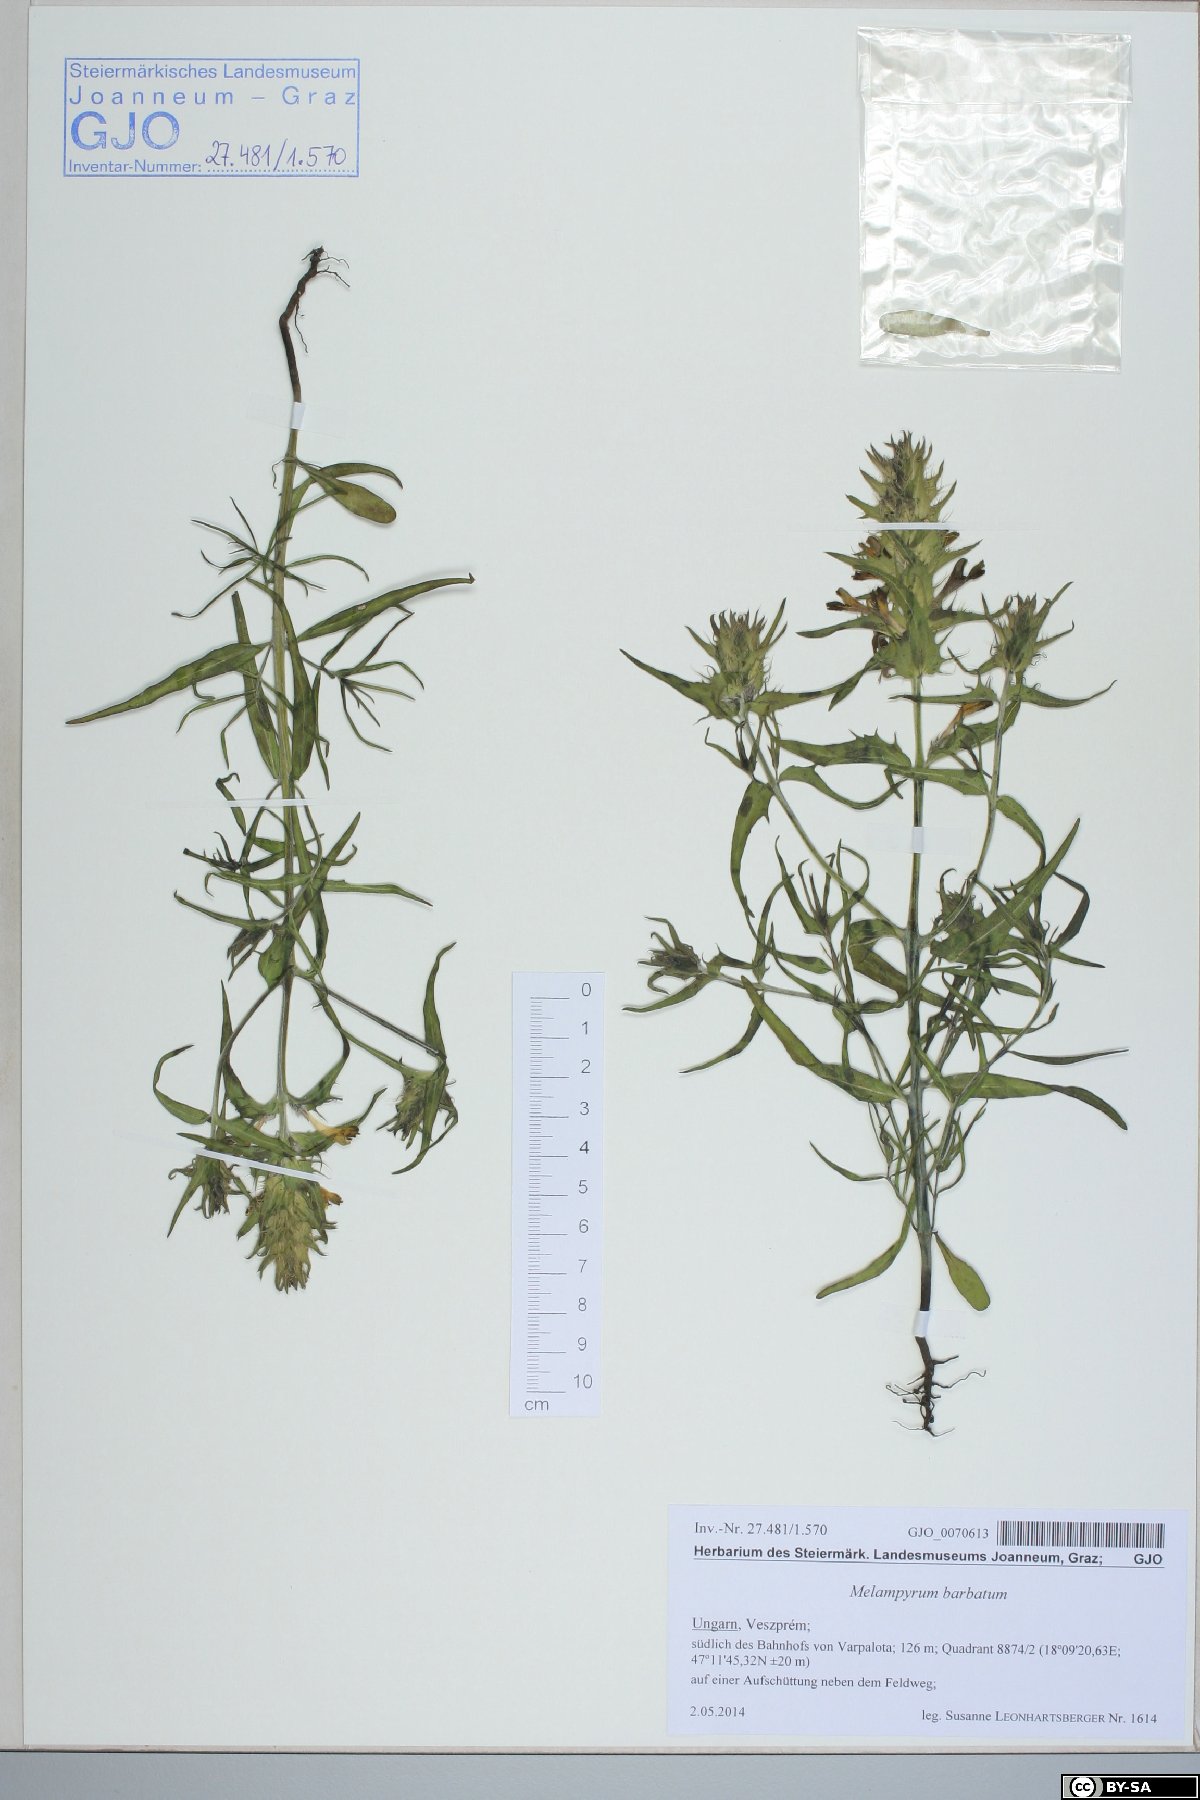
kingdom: Plantae
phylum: Tracheophyta
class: Magnoliopsida
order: Lamiales
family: Orobanchaceae
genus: Melampyrum
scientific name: Melampyrum barbatum
